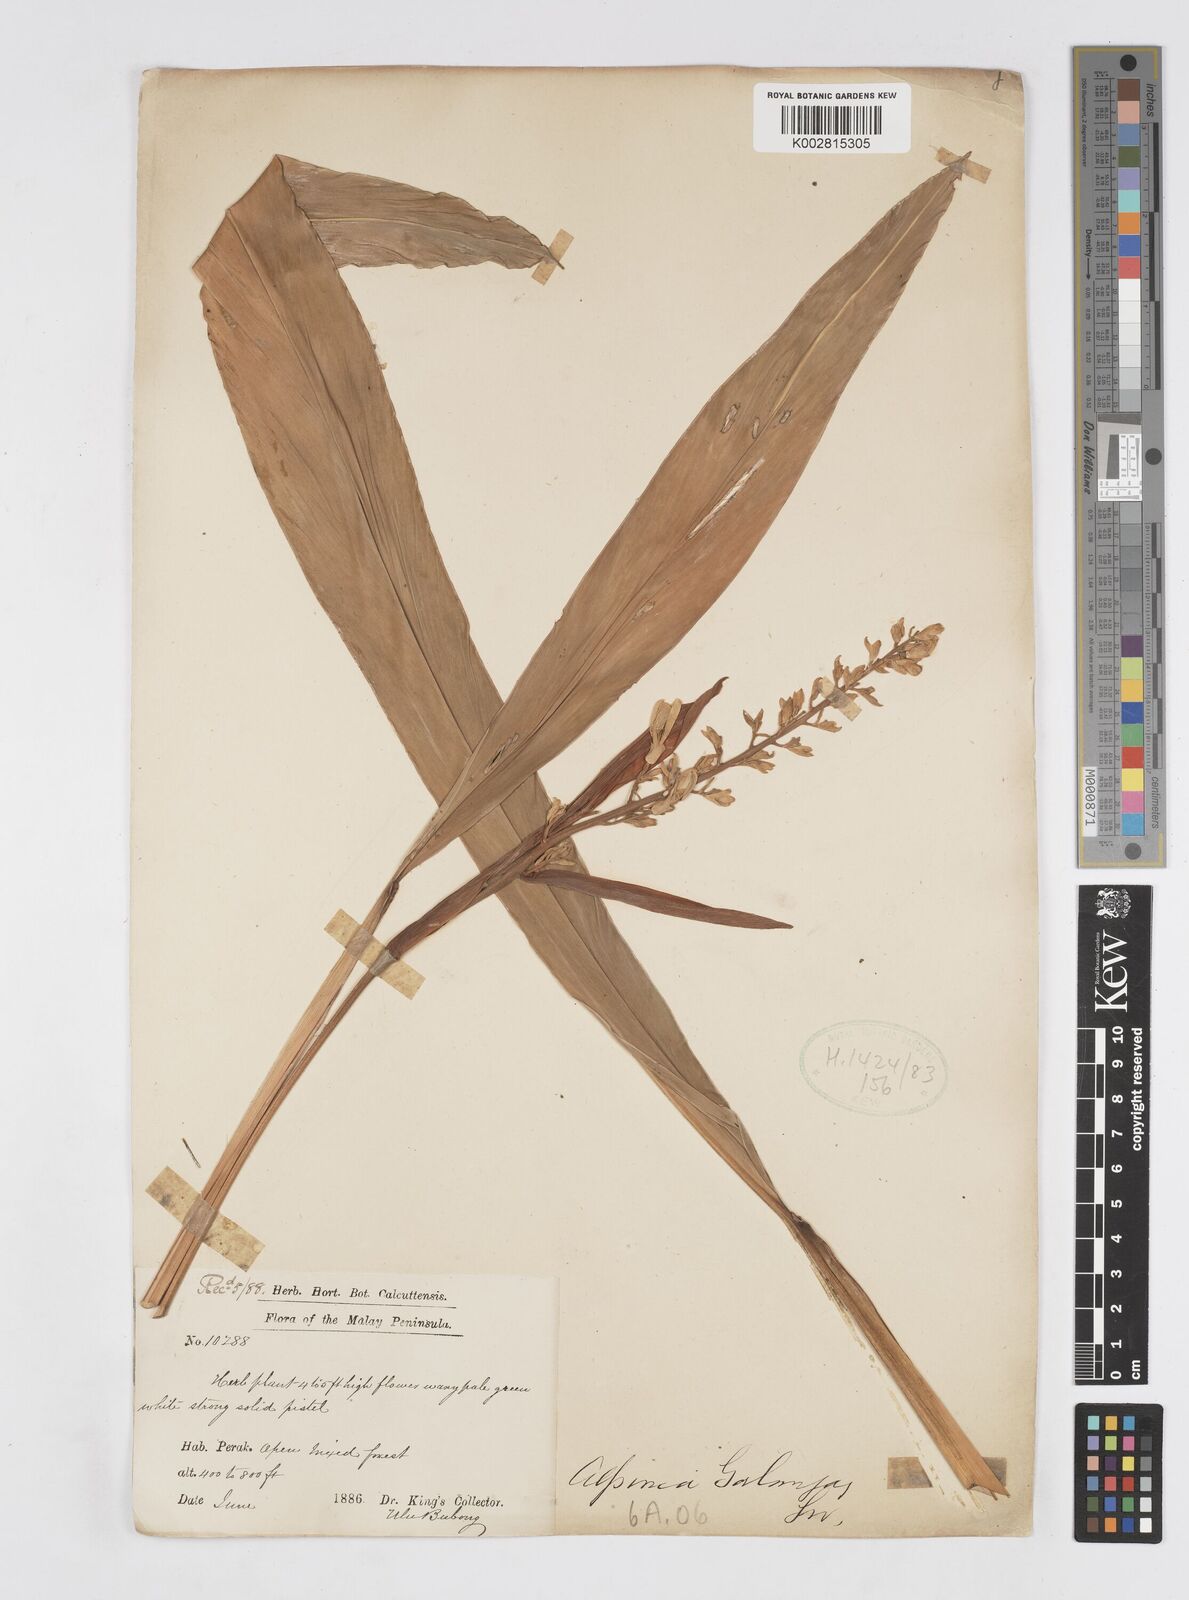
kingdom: Plantae
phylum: Tracheophyta
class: Liliopsida
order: Zingiberales
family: Zingiberaceae
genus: Alpinia
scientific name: Alpinia galanga
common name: Siamese-ginger
